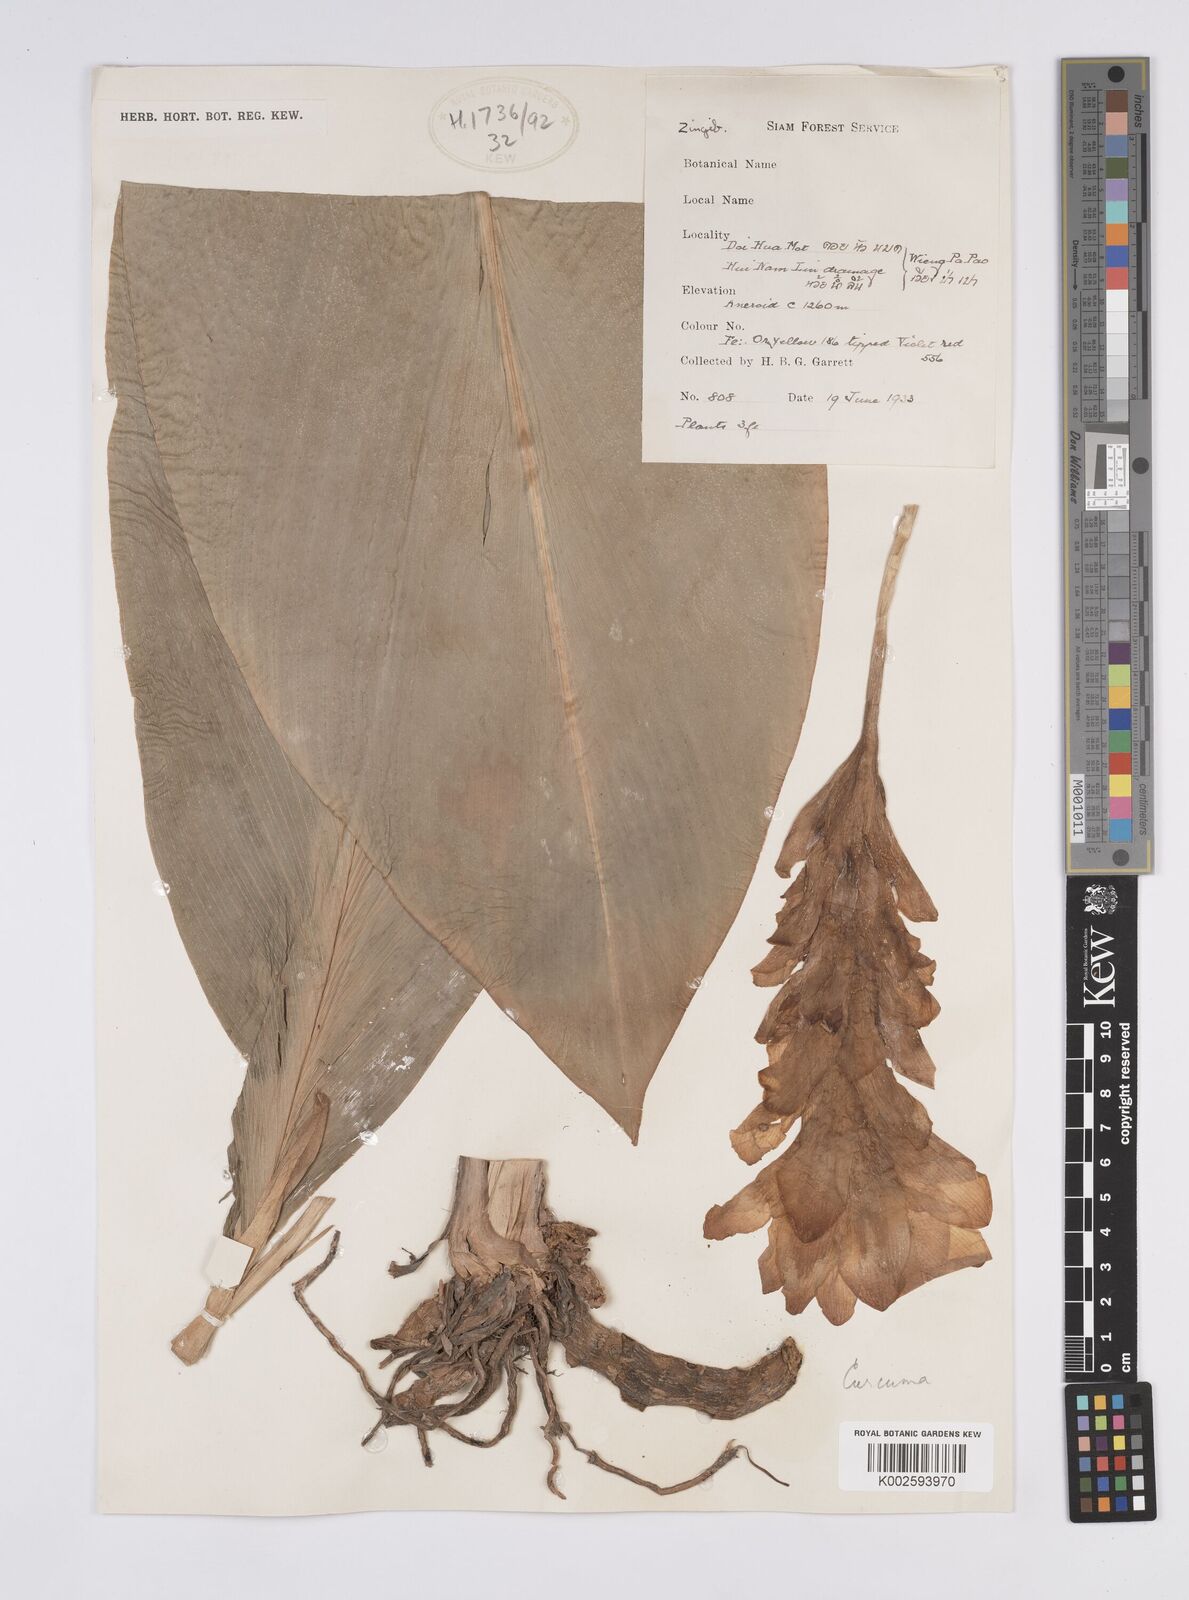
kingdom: Plantae
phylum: Tracheophyta
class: Liliopsida
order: Zingiberales
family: Zingiberaceae
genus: Curcuma
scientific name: Curcuma
